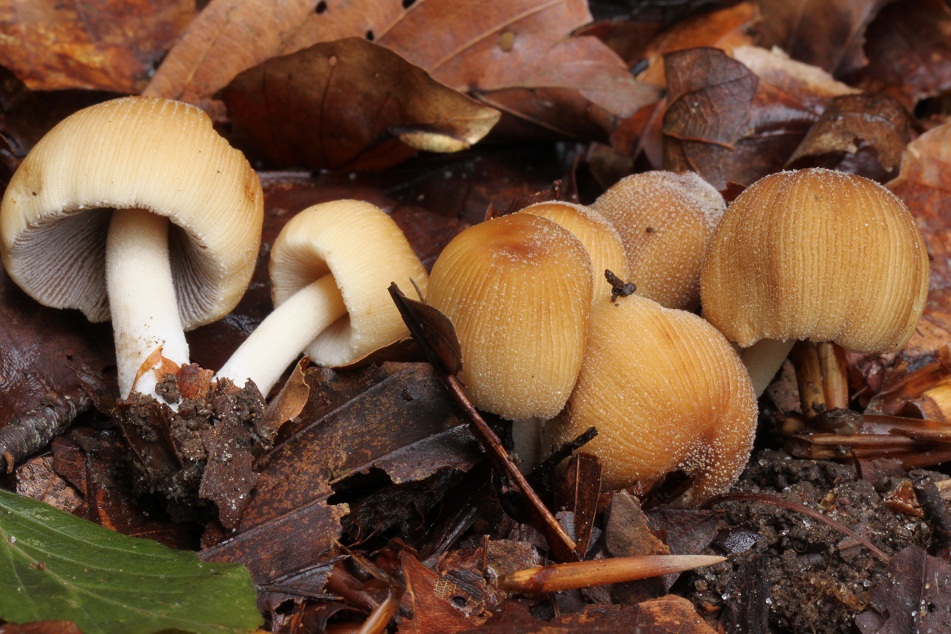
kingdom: Fungi
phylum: Basidiomycota
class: Agaricomycetes
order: Agaricales
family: Psathyrellaceae
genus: Coprinellus
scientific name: Coprinellus micaceus
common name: glimmer-blækhat
